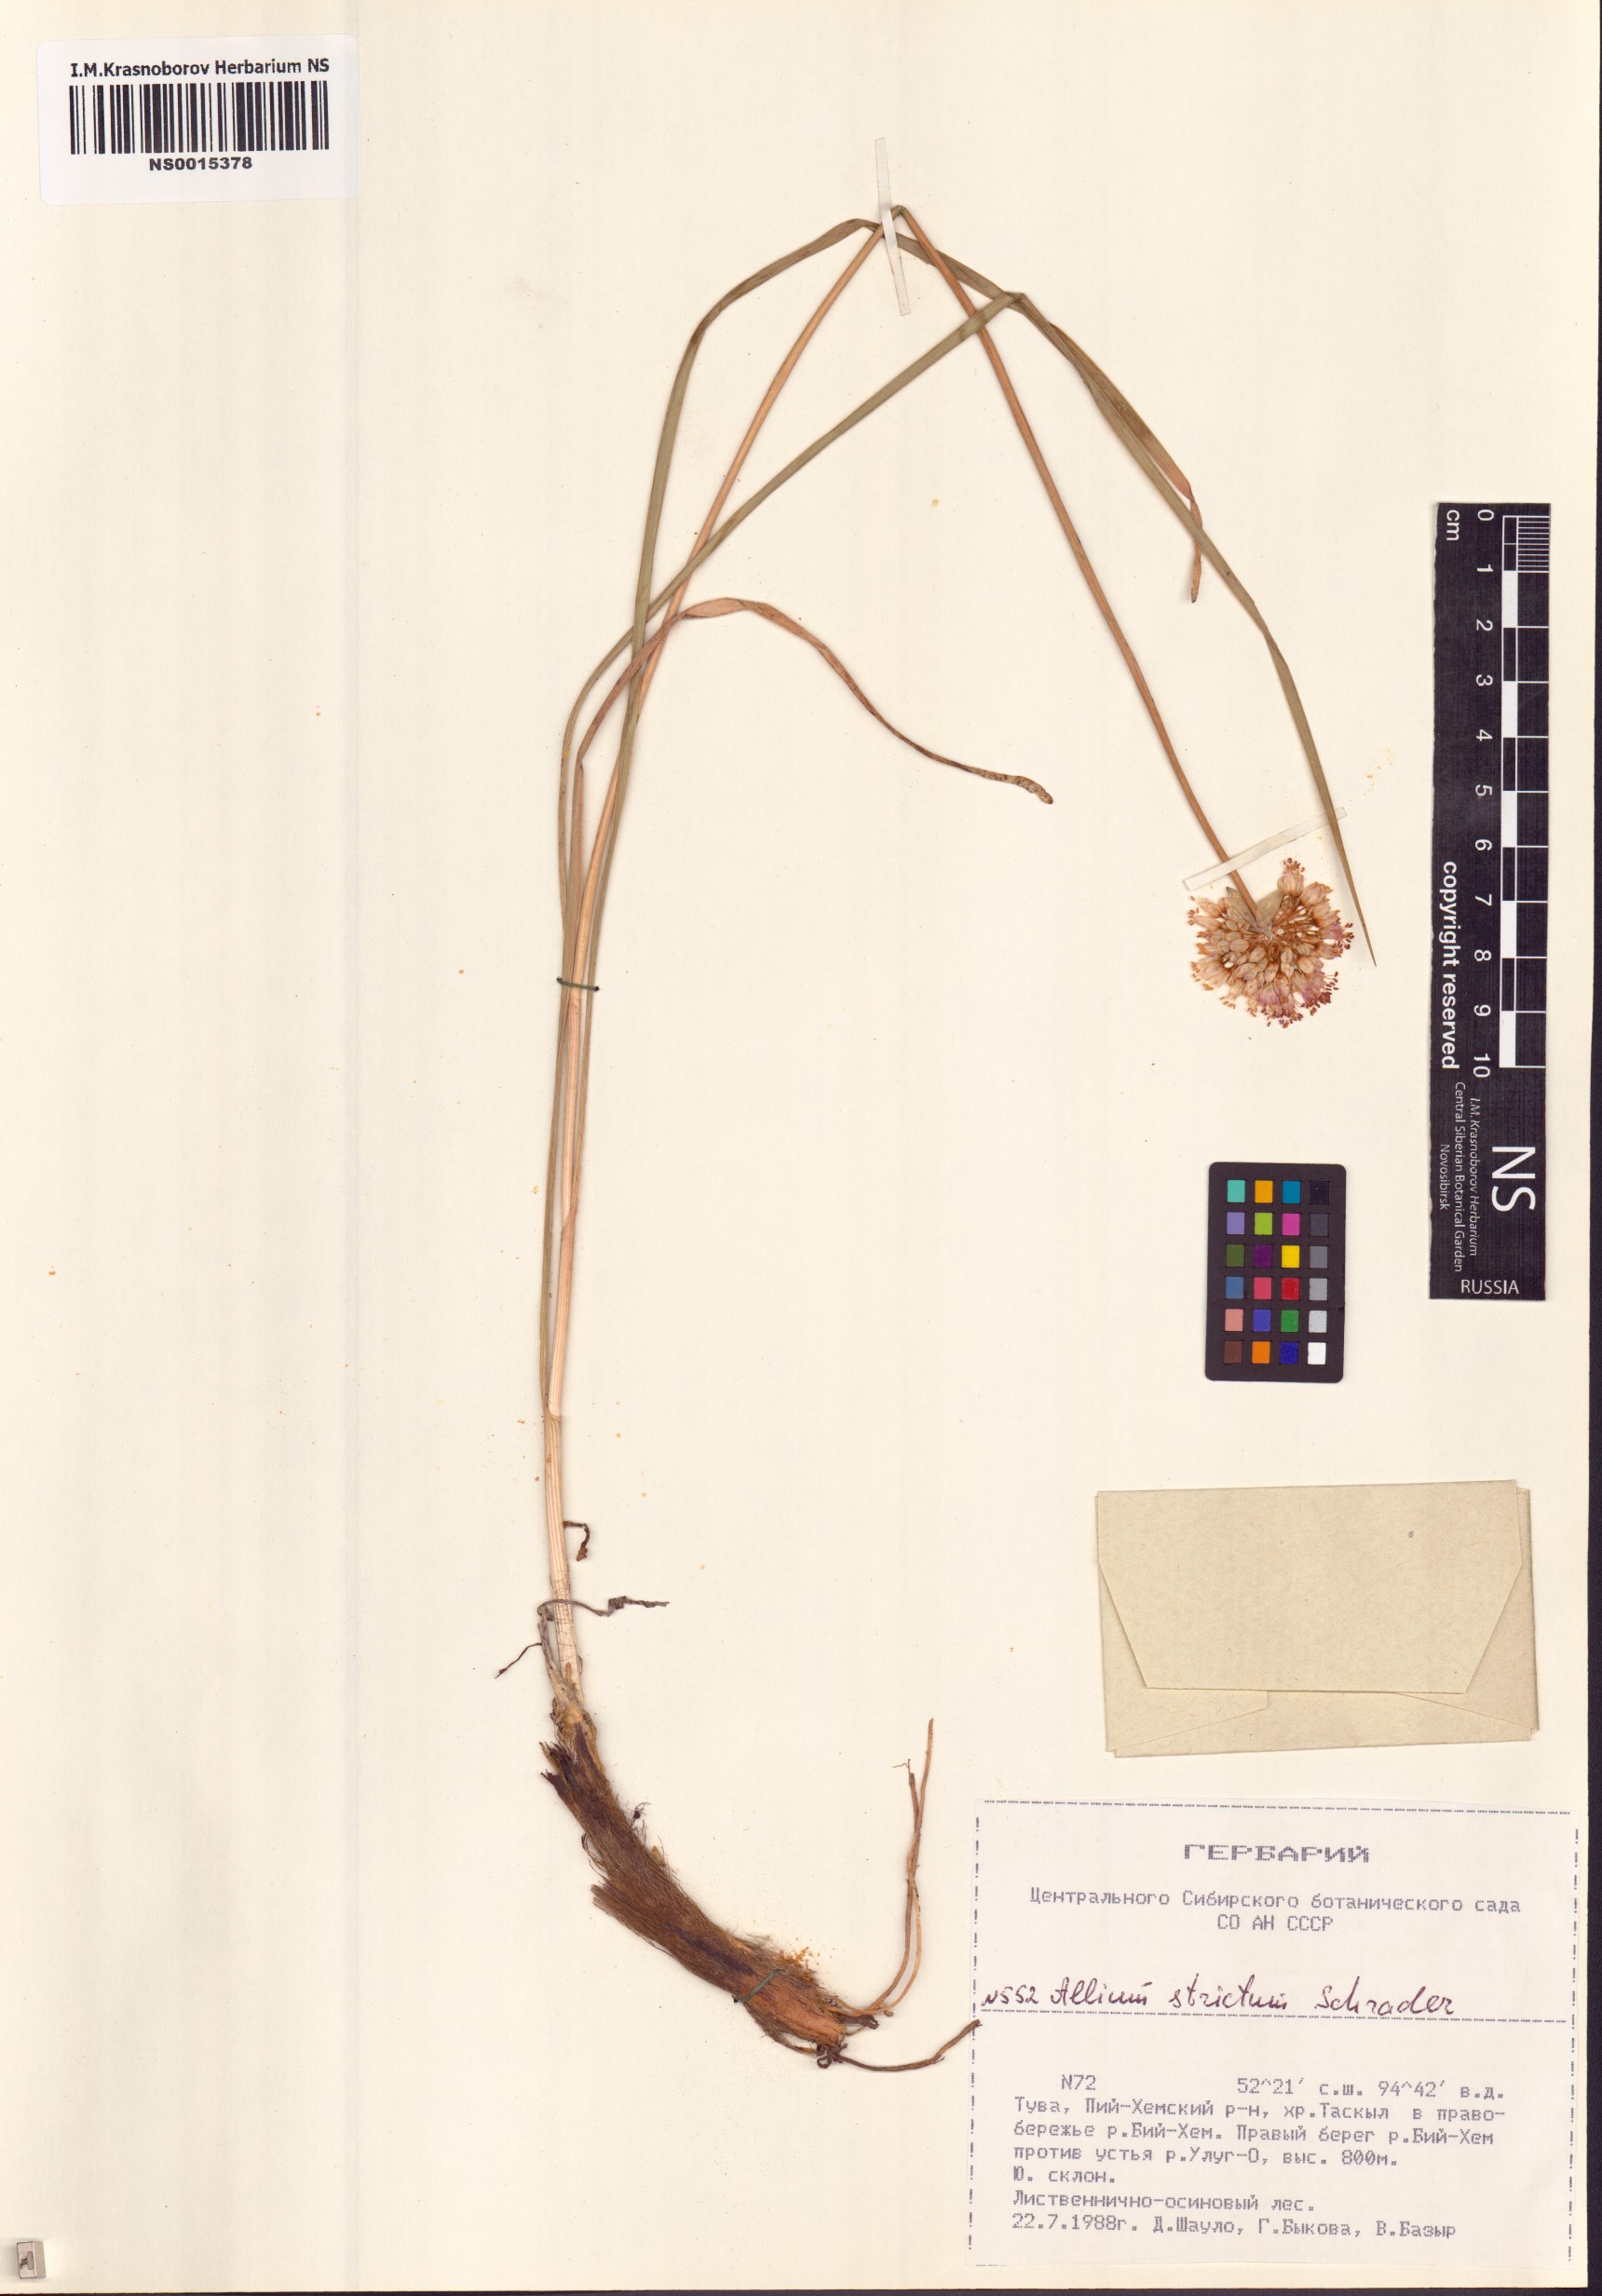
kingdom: Plantae
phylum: Tracheophyta
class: Liliopsida
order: Asparagales
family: Amaryllidaceae
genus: Allium
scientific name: Allium strictum
